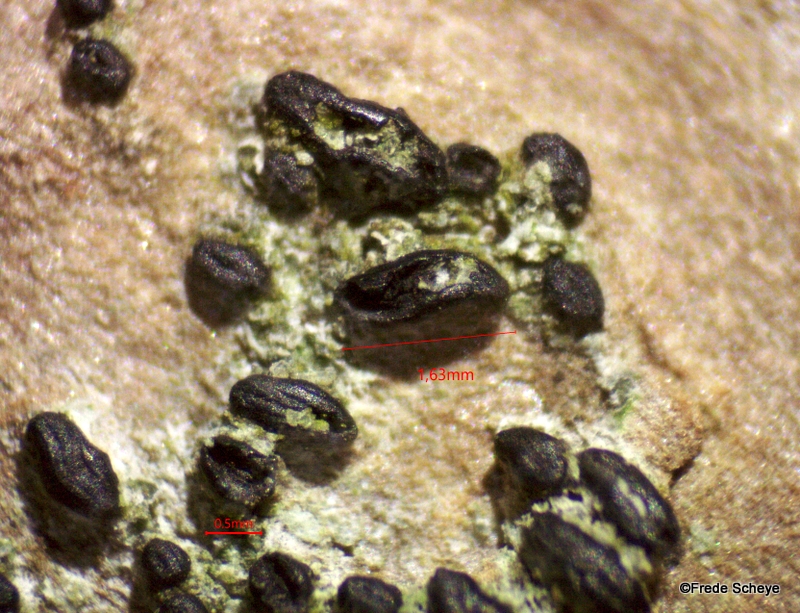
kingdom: Fungi
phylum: Ascomycota
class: Dothideomycetes
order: Hysteriales
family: Hysteriaceae
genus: Hysterium
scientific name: Hysterium acuminatum
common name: almindelig kulmund
